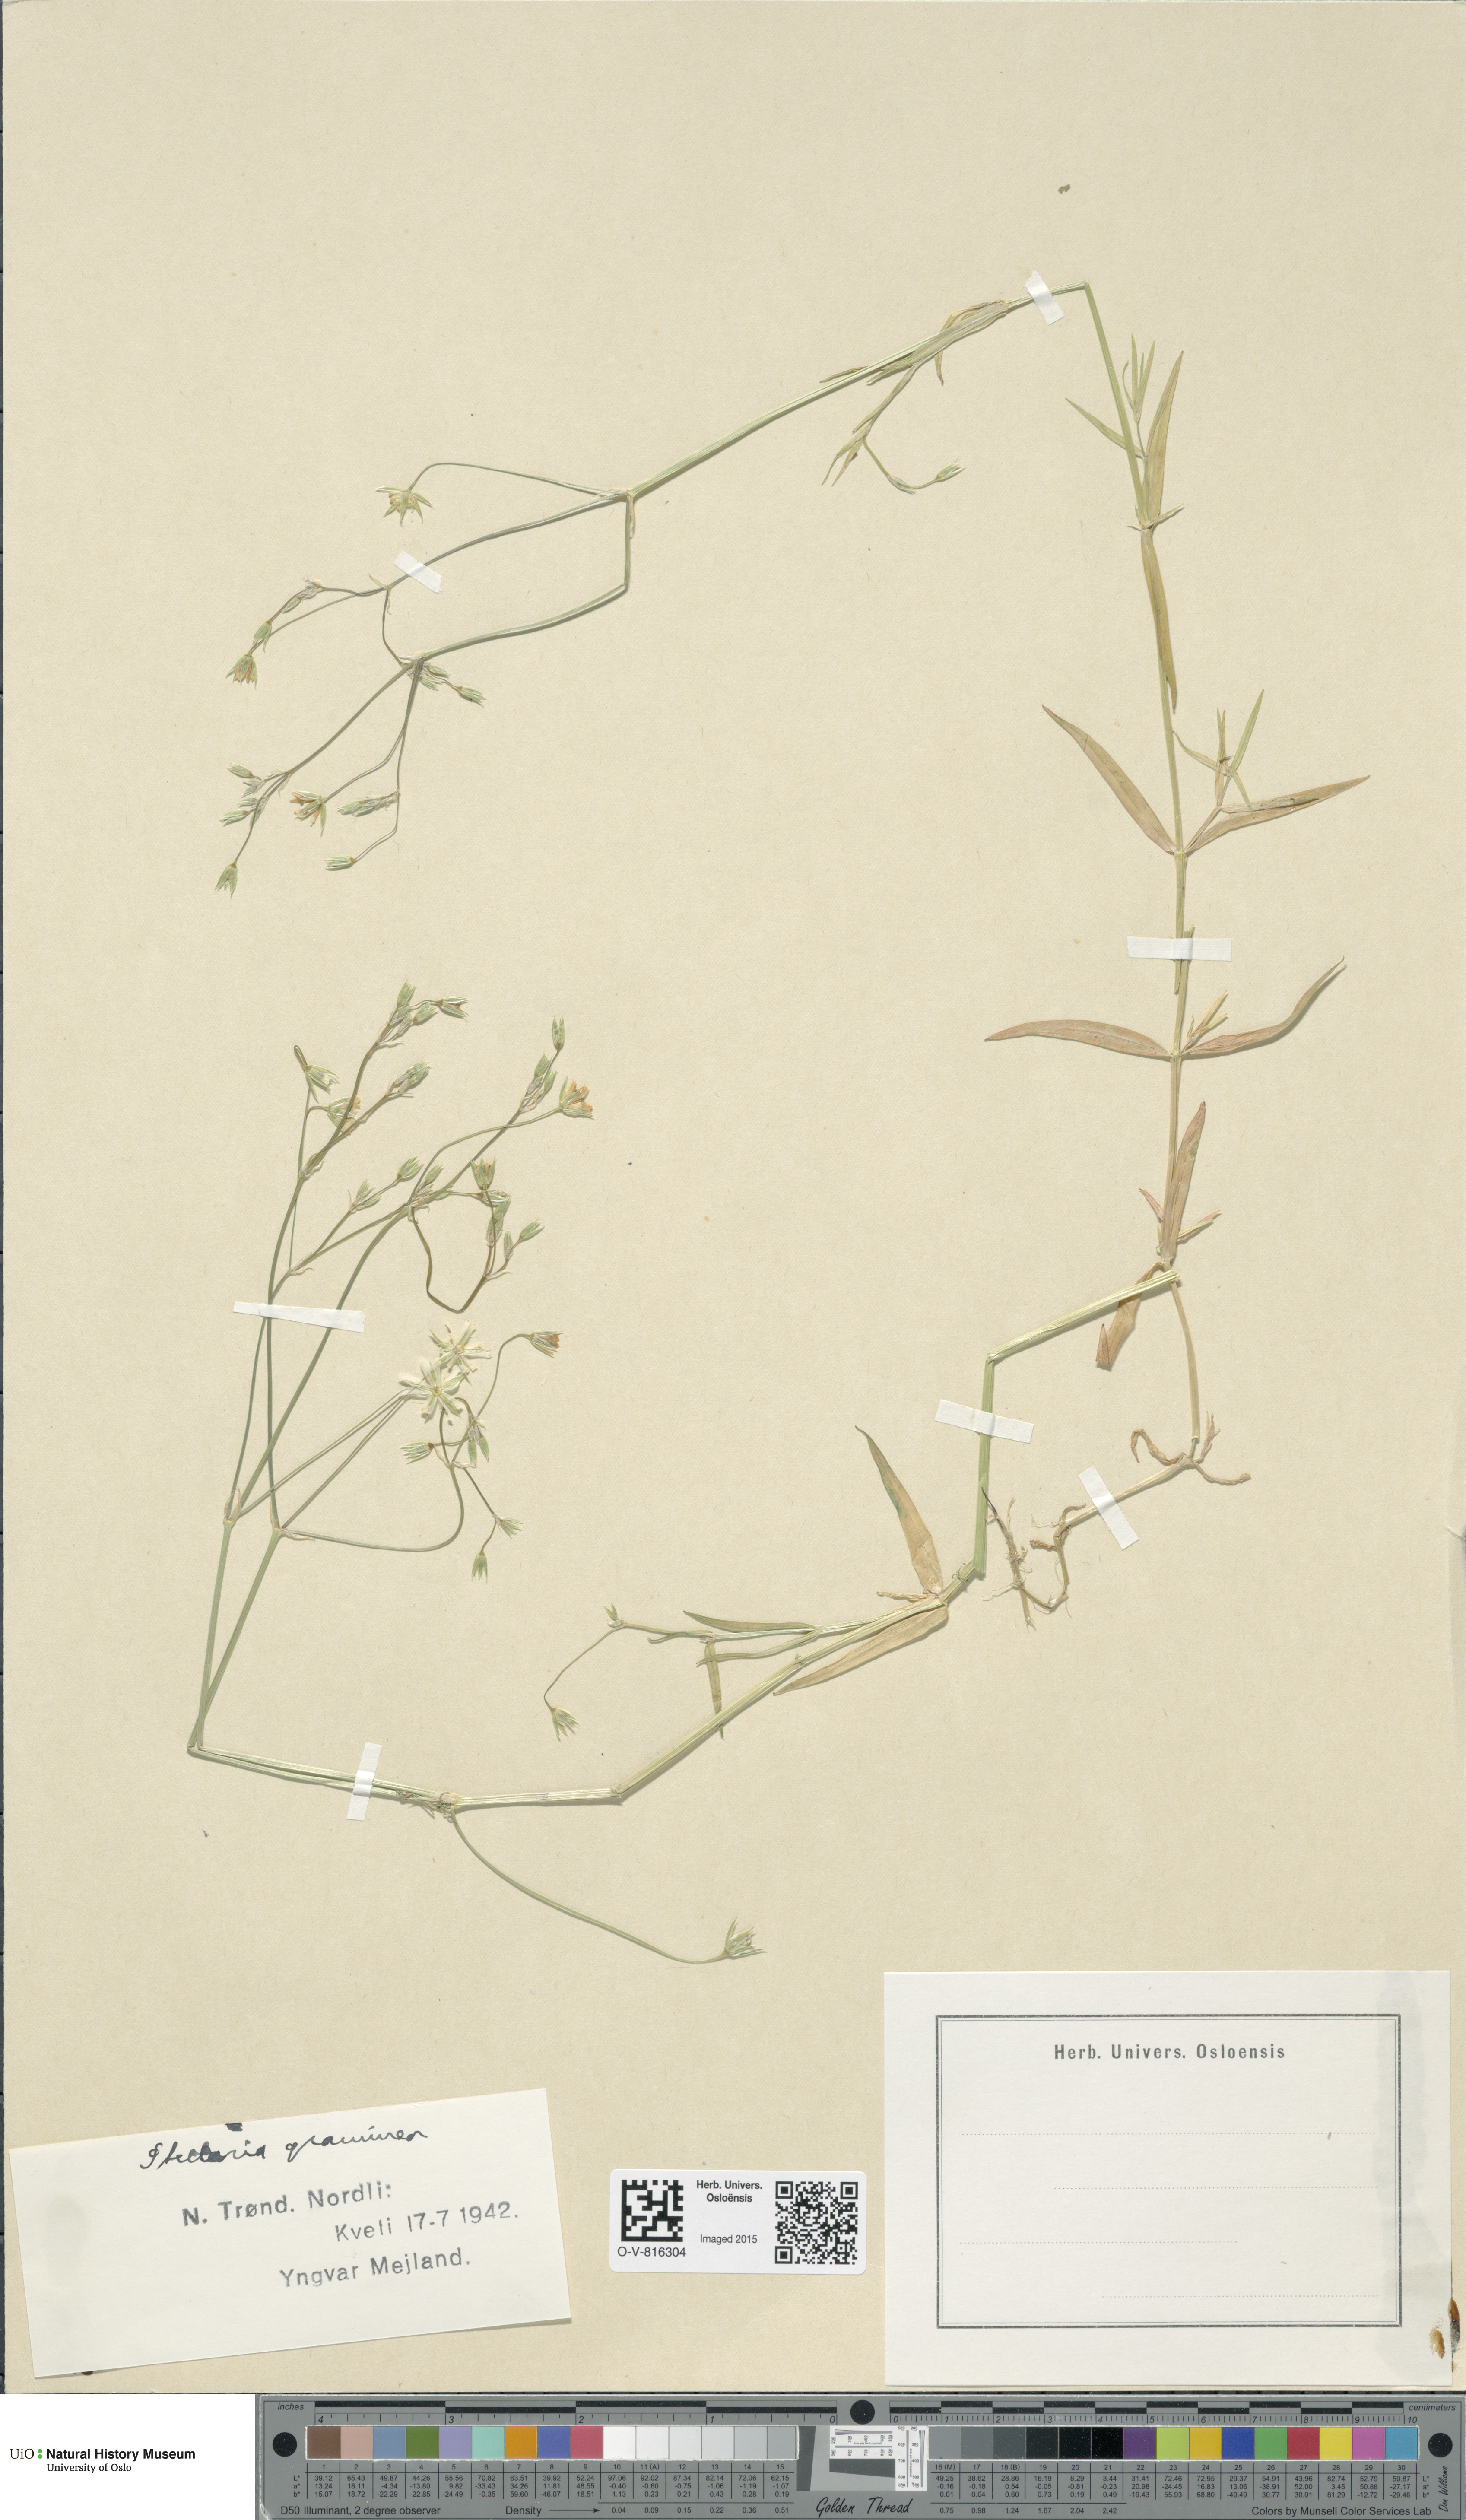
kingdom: Plantae
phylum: Tracheophyta
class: Magnoliopsida
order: Caryophyllales
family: Caryophyllaceae
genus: Stellaria
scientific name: Stellaria graminea
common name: Grass-like starwort
